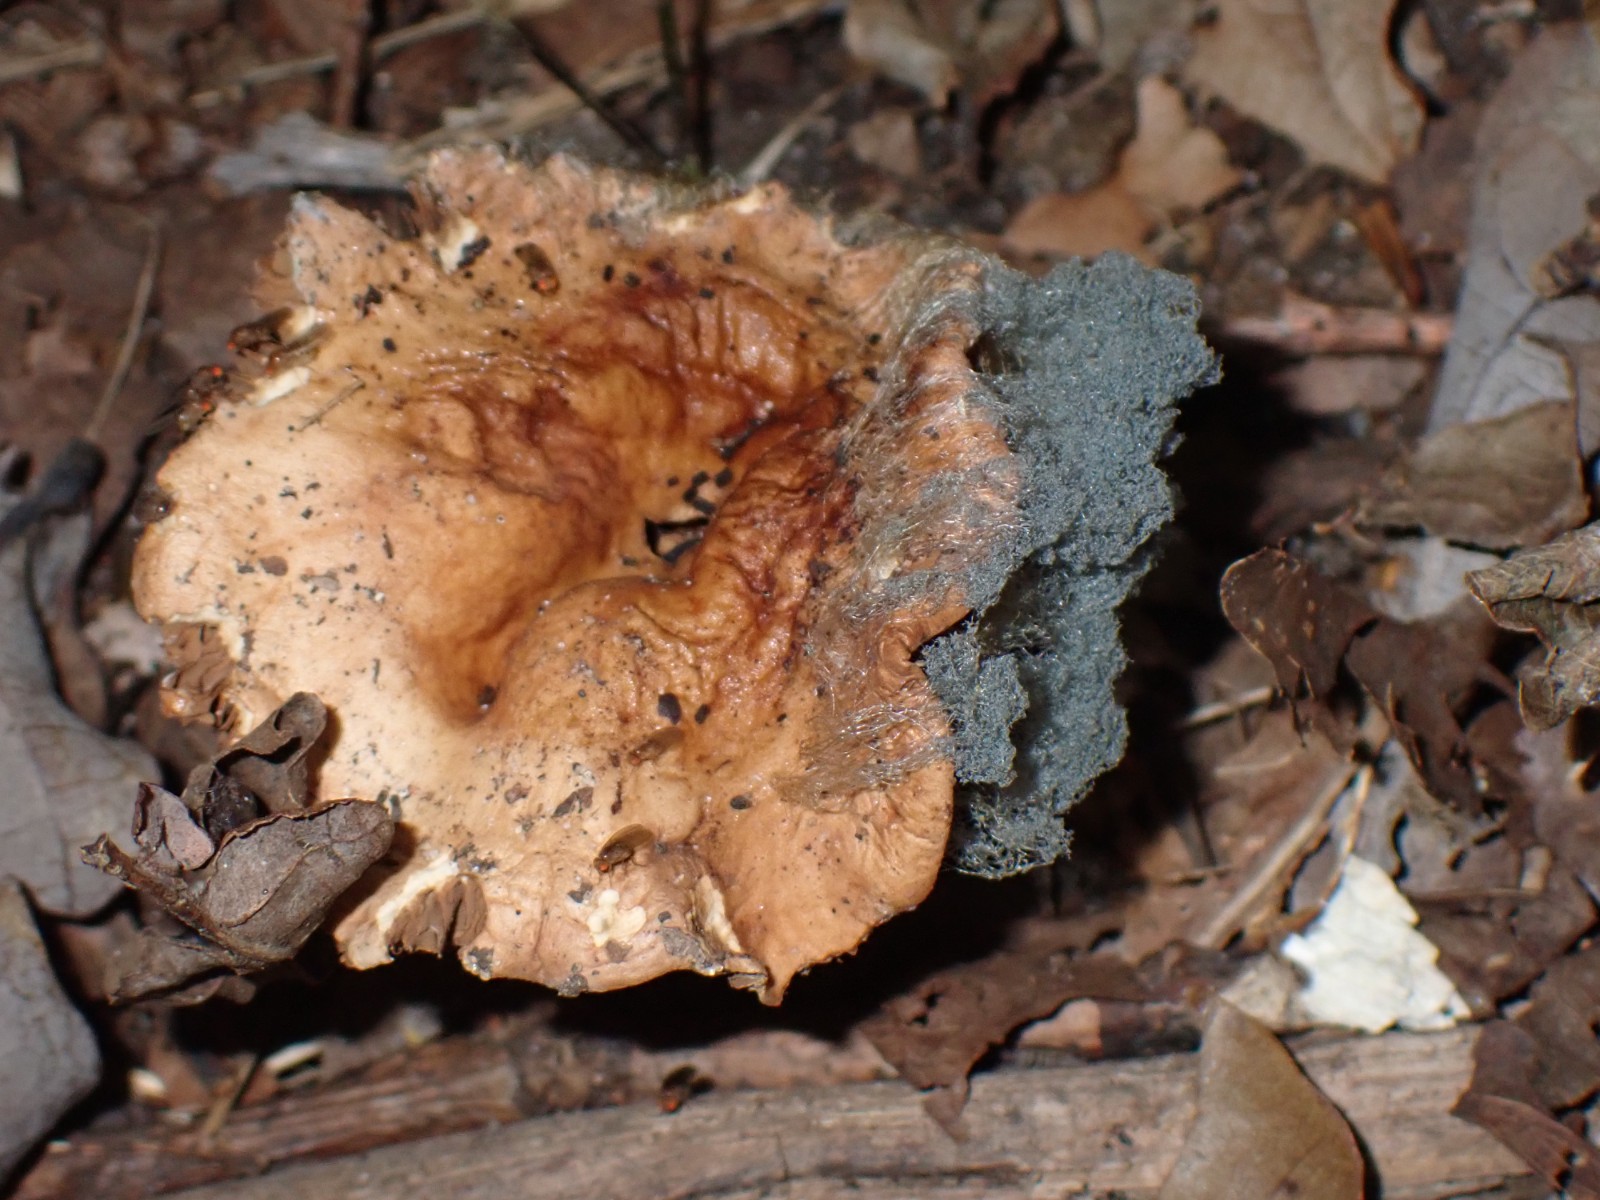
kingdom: Fungi
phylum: Mucoromycota
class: Mucoromycetes
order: Mucorales
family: Rhizopodaceae
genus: Syzygites
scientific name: Syzygites megalocarpus
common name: nissenål
